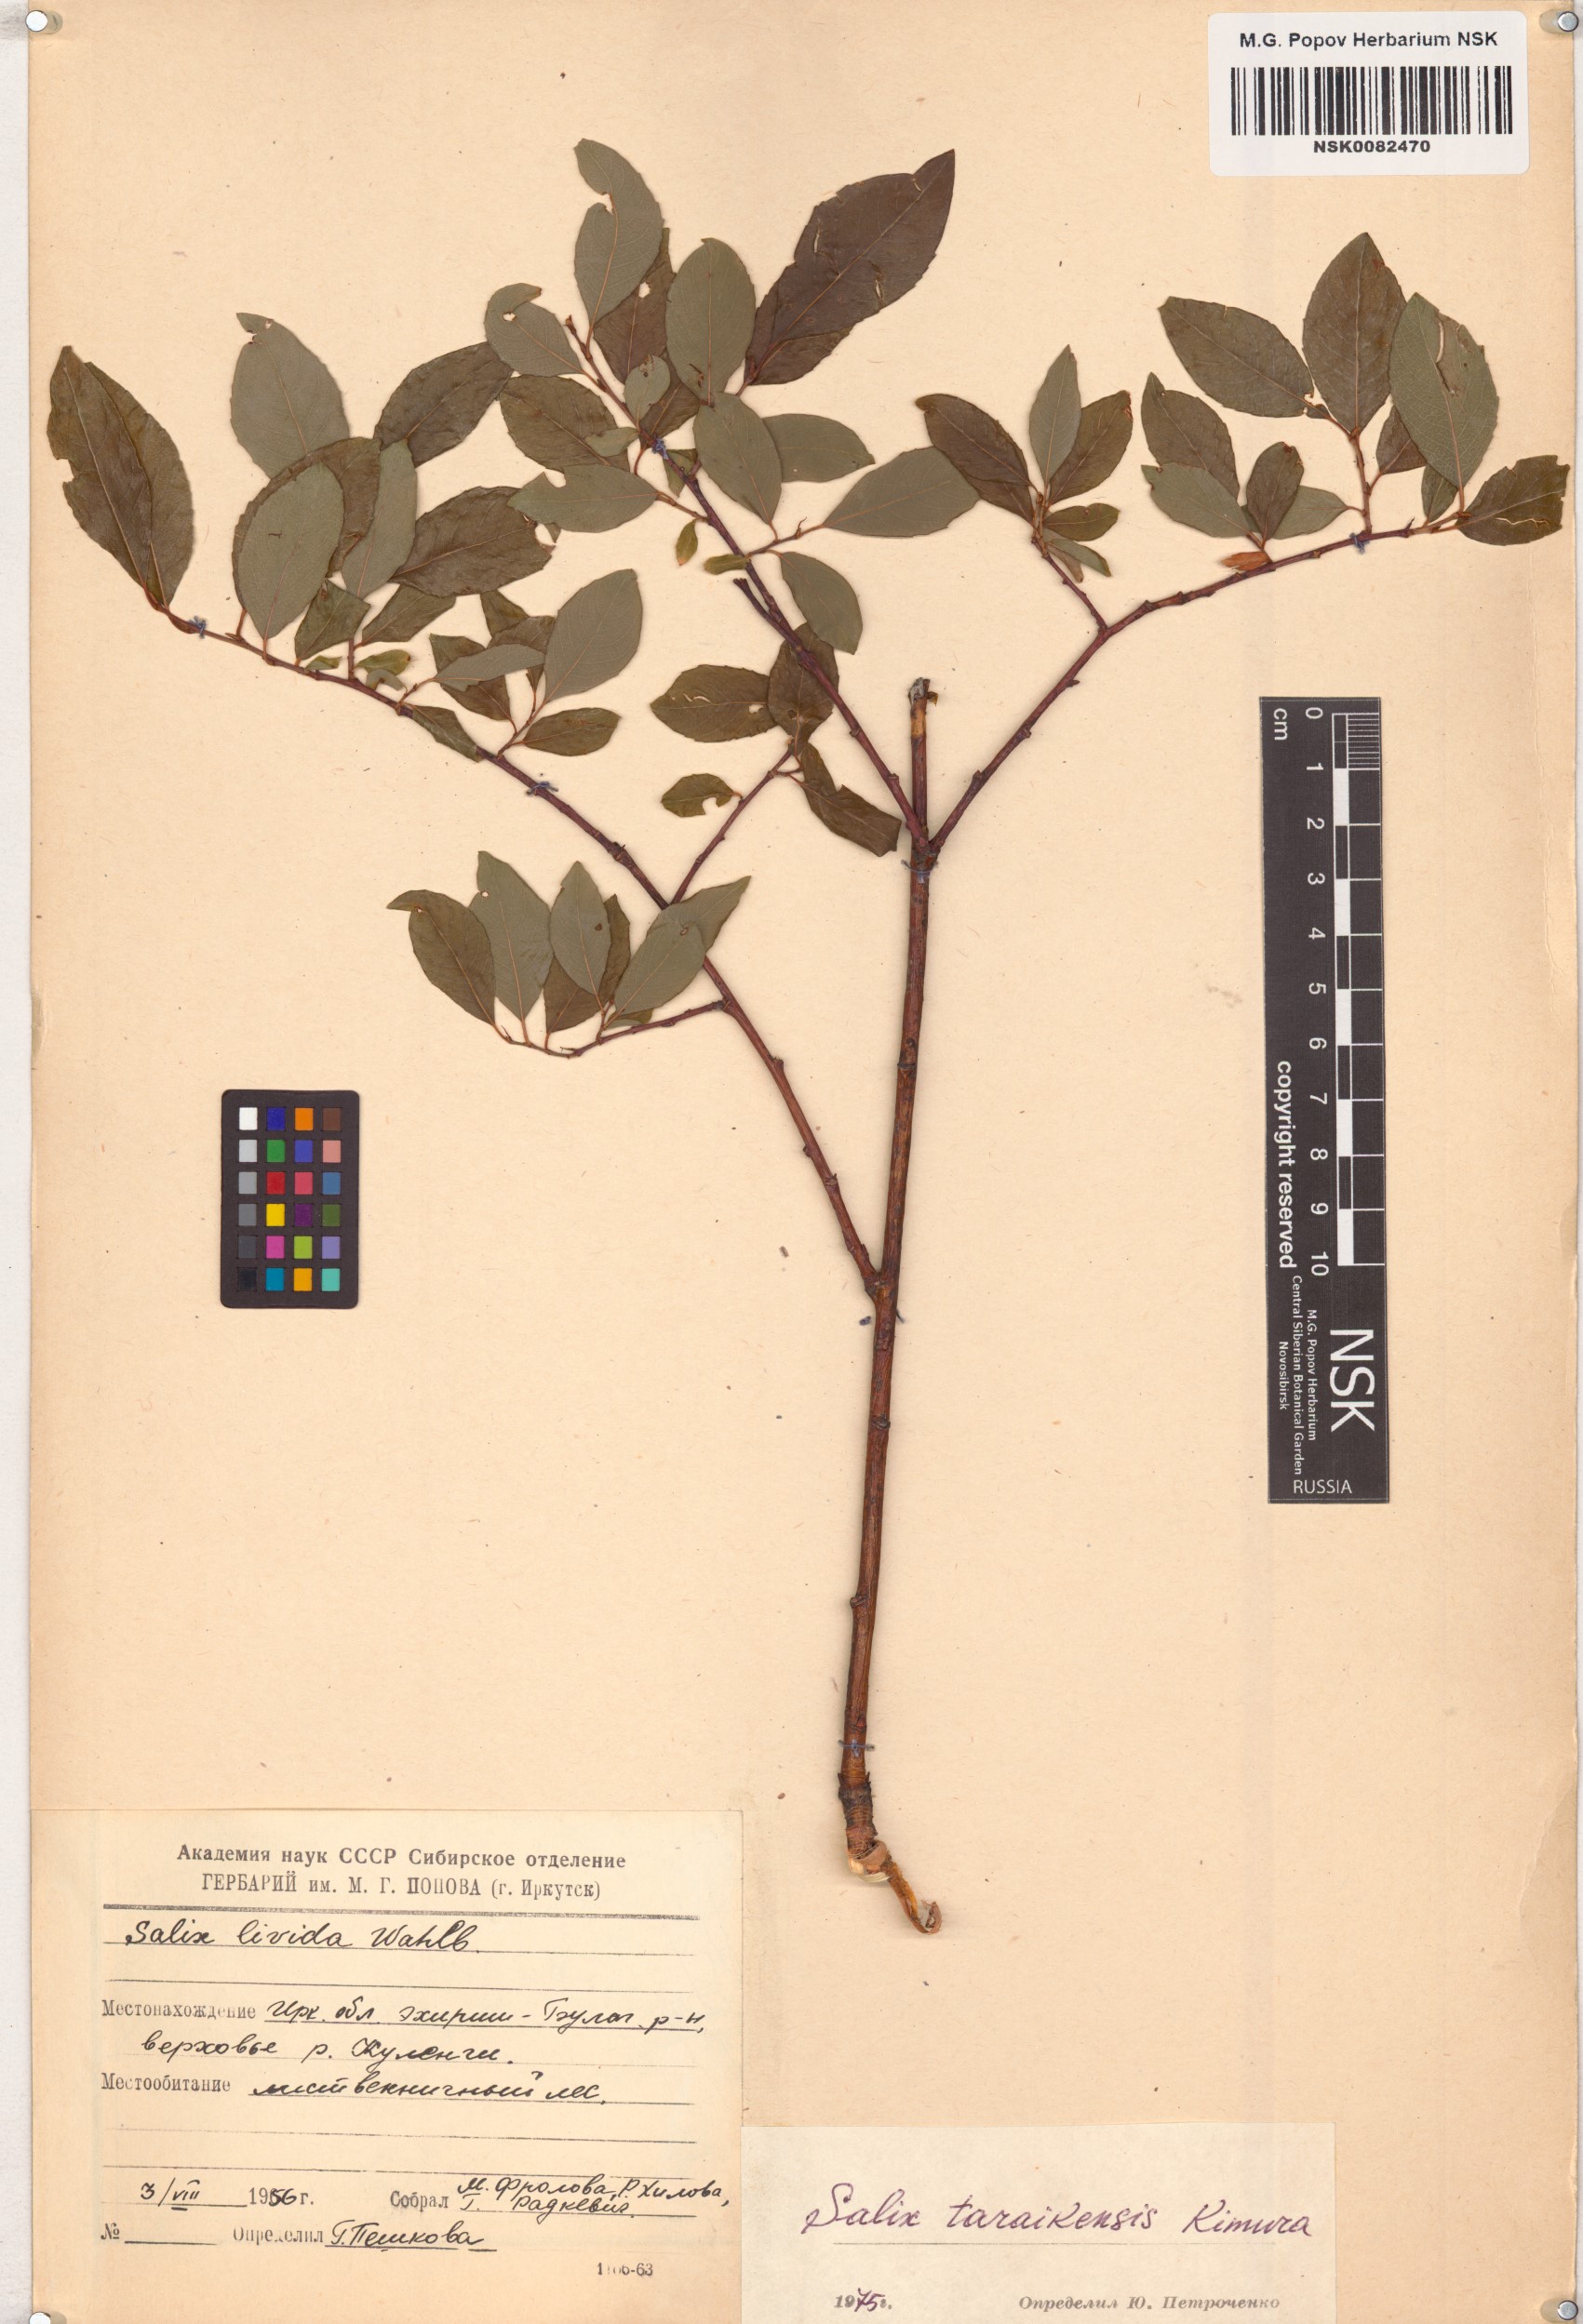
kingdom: Plantae
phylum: Tracheophyta
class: Magnoliopsida
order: Malpighiales
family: Salicaceae
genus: Salix
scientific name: Salix taraikensis
